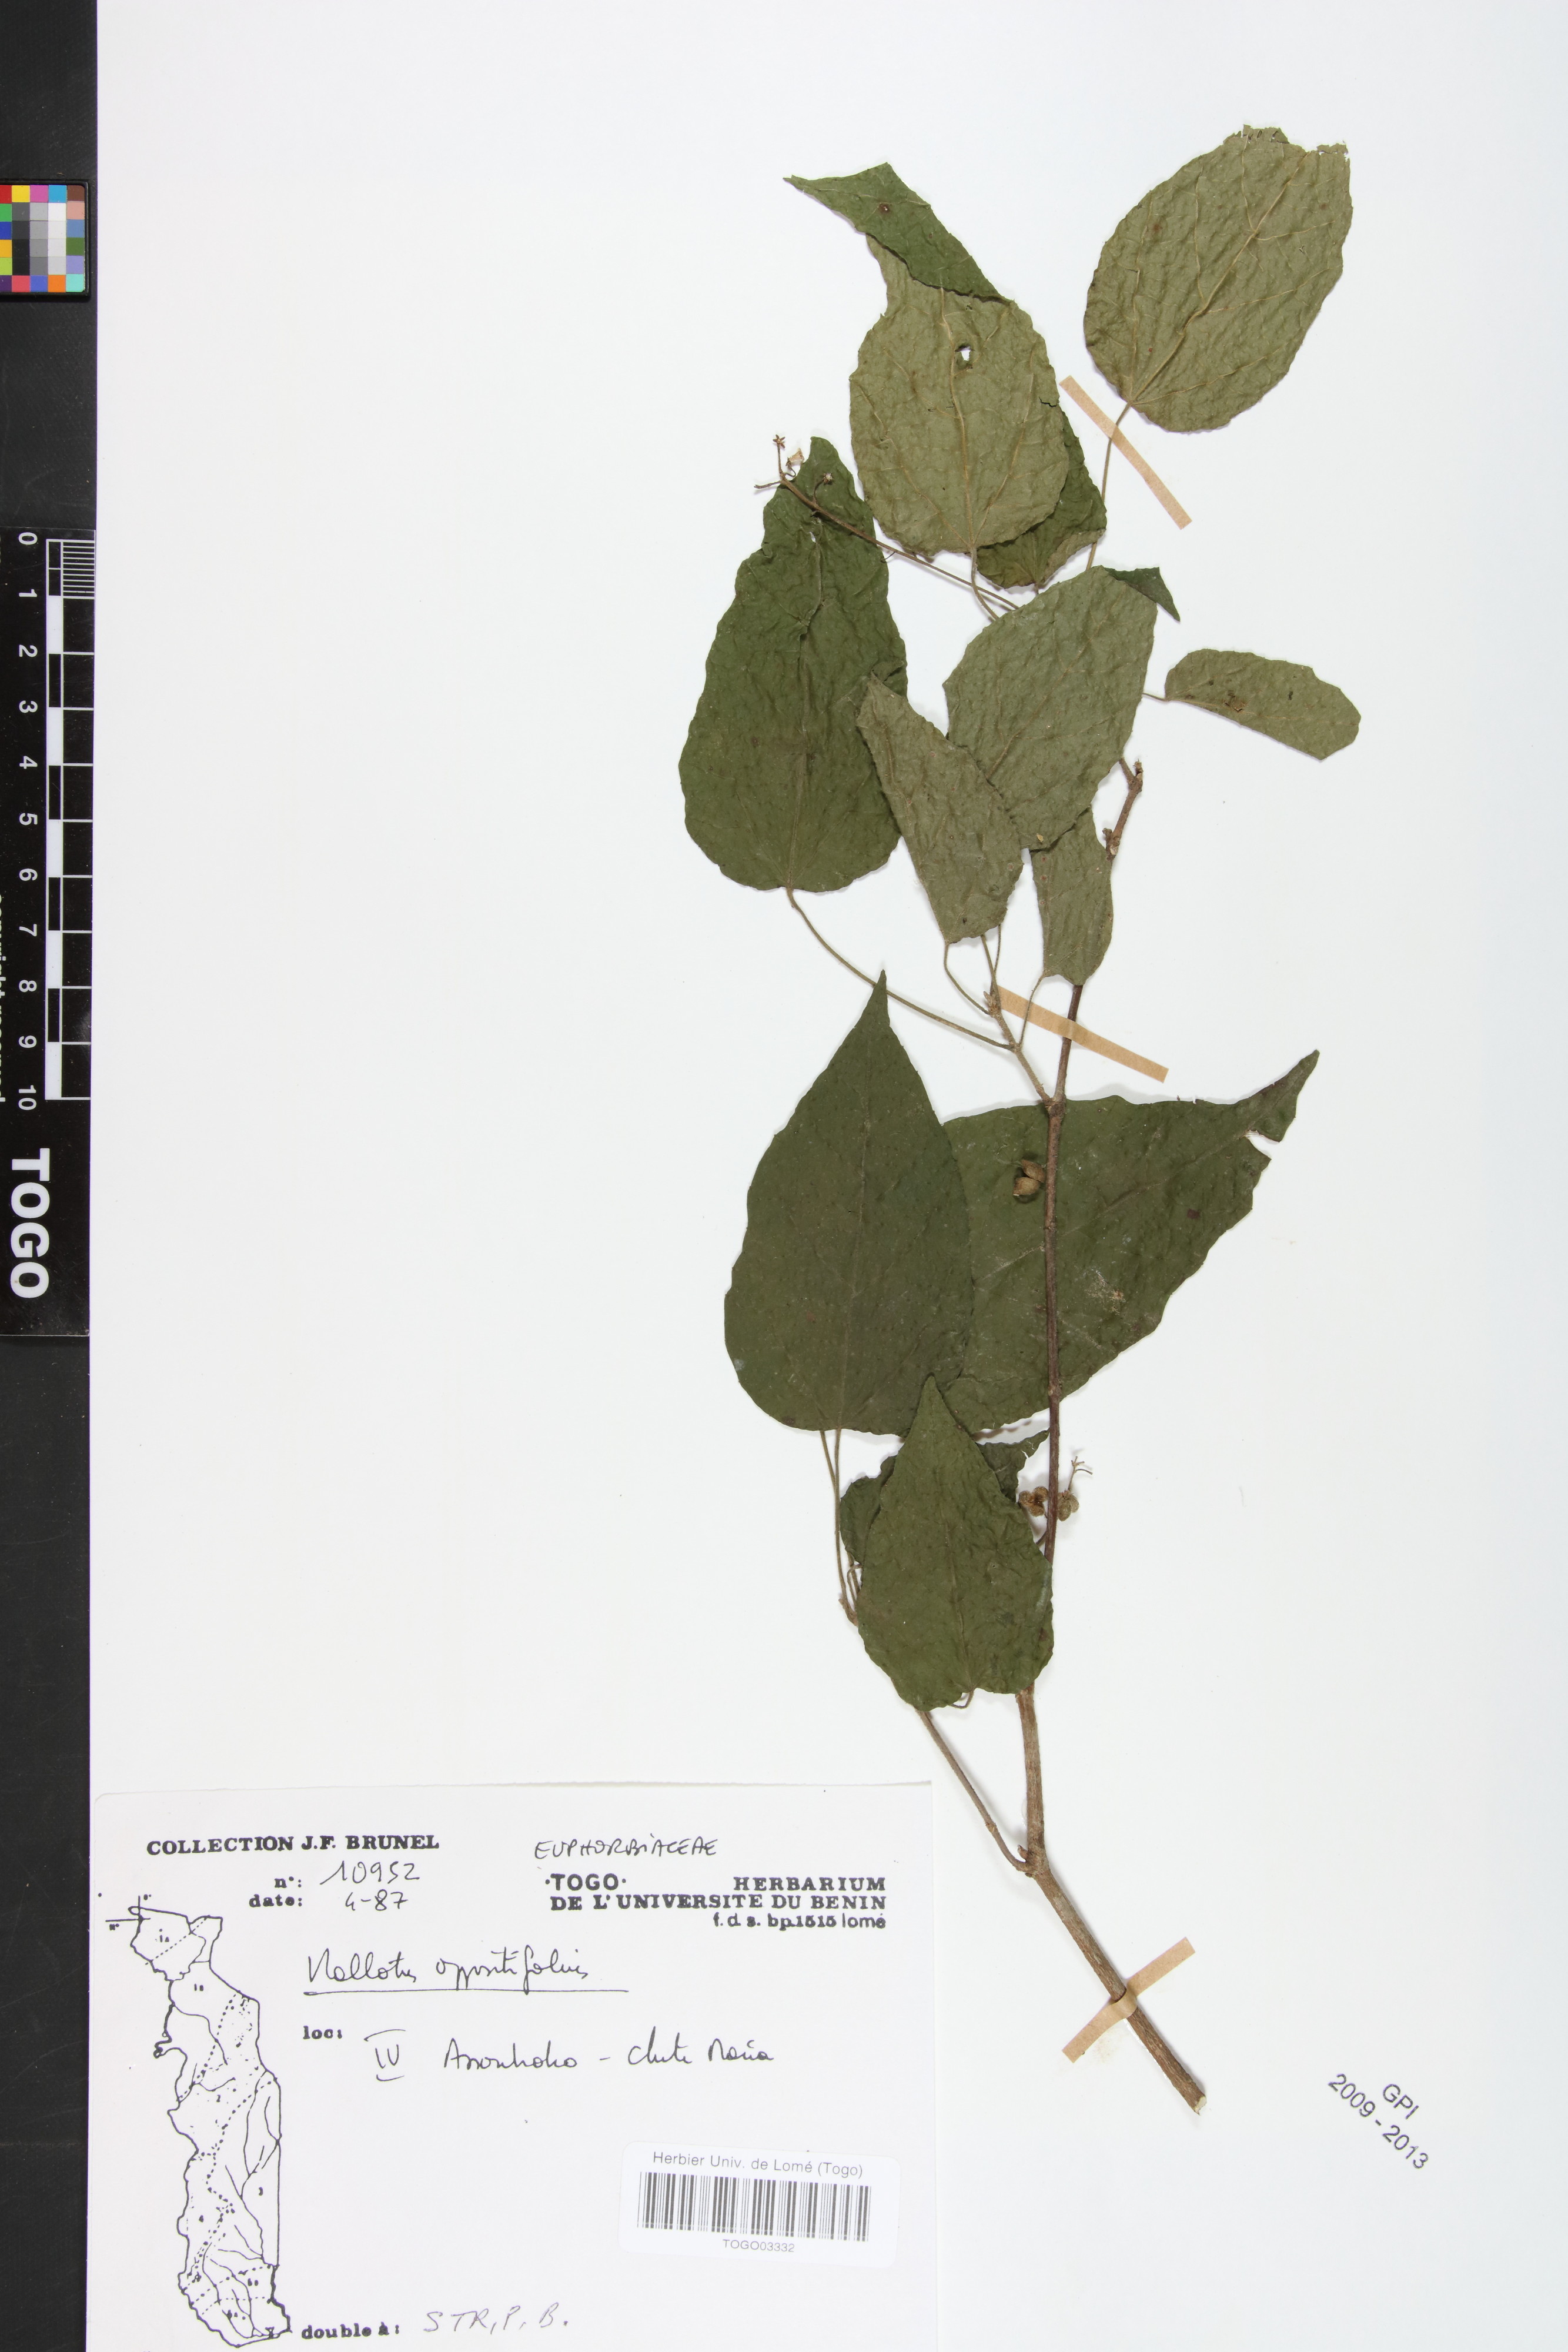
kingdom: Plantae
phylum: Tracheophyta
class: Magnoliopsida
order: Malpighiales
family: Euphorbiaceae
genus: Mallotus
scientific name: Mallotus oppositifolius
